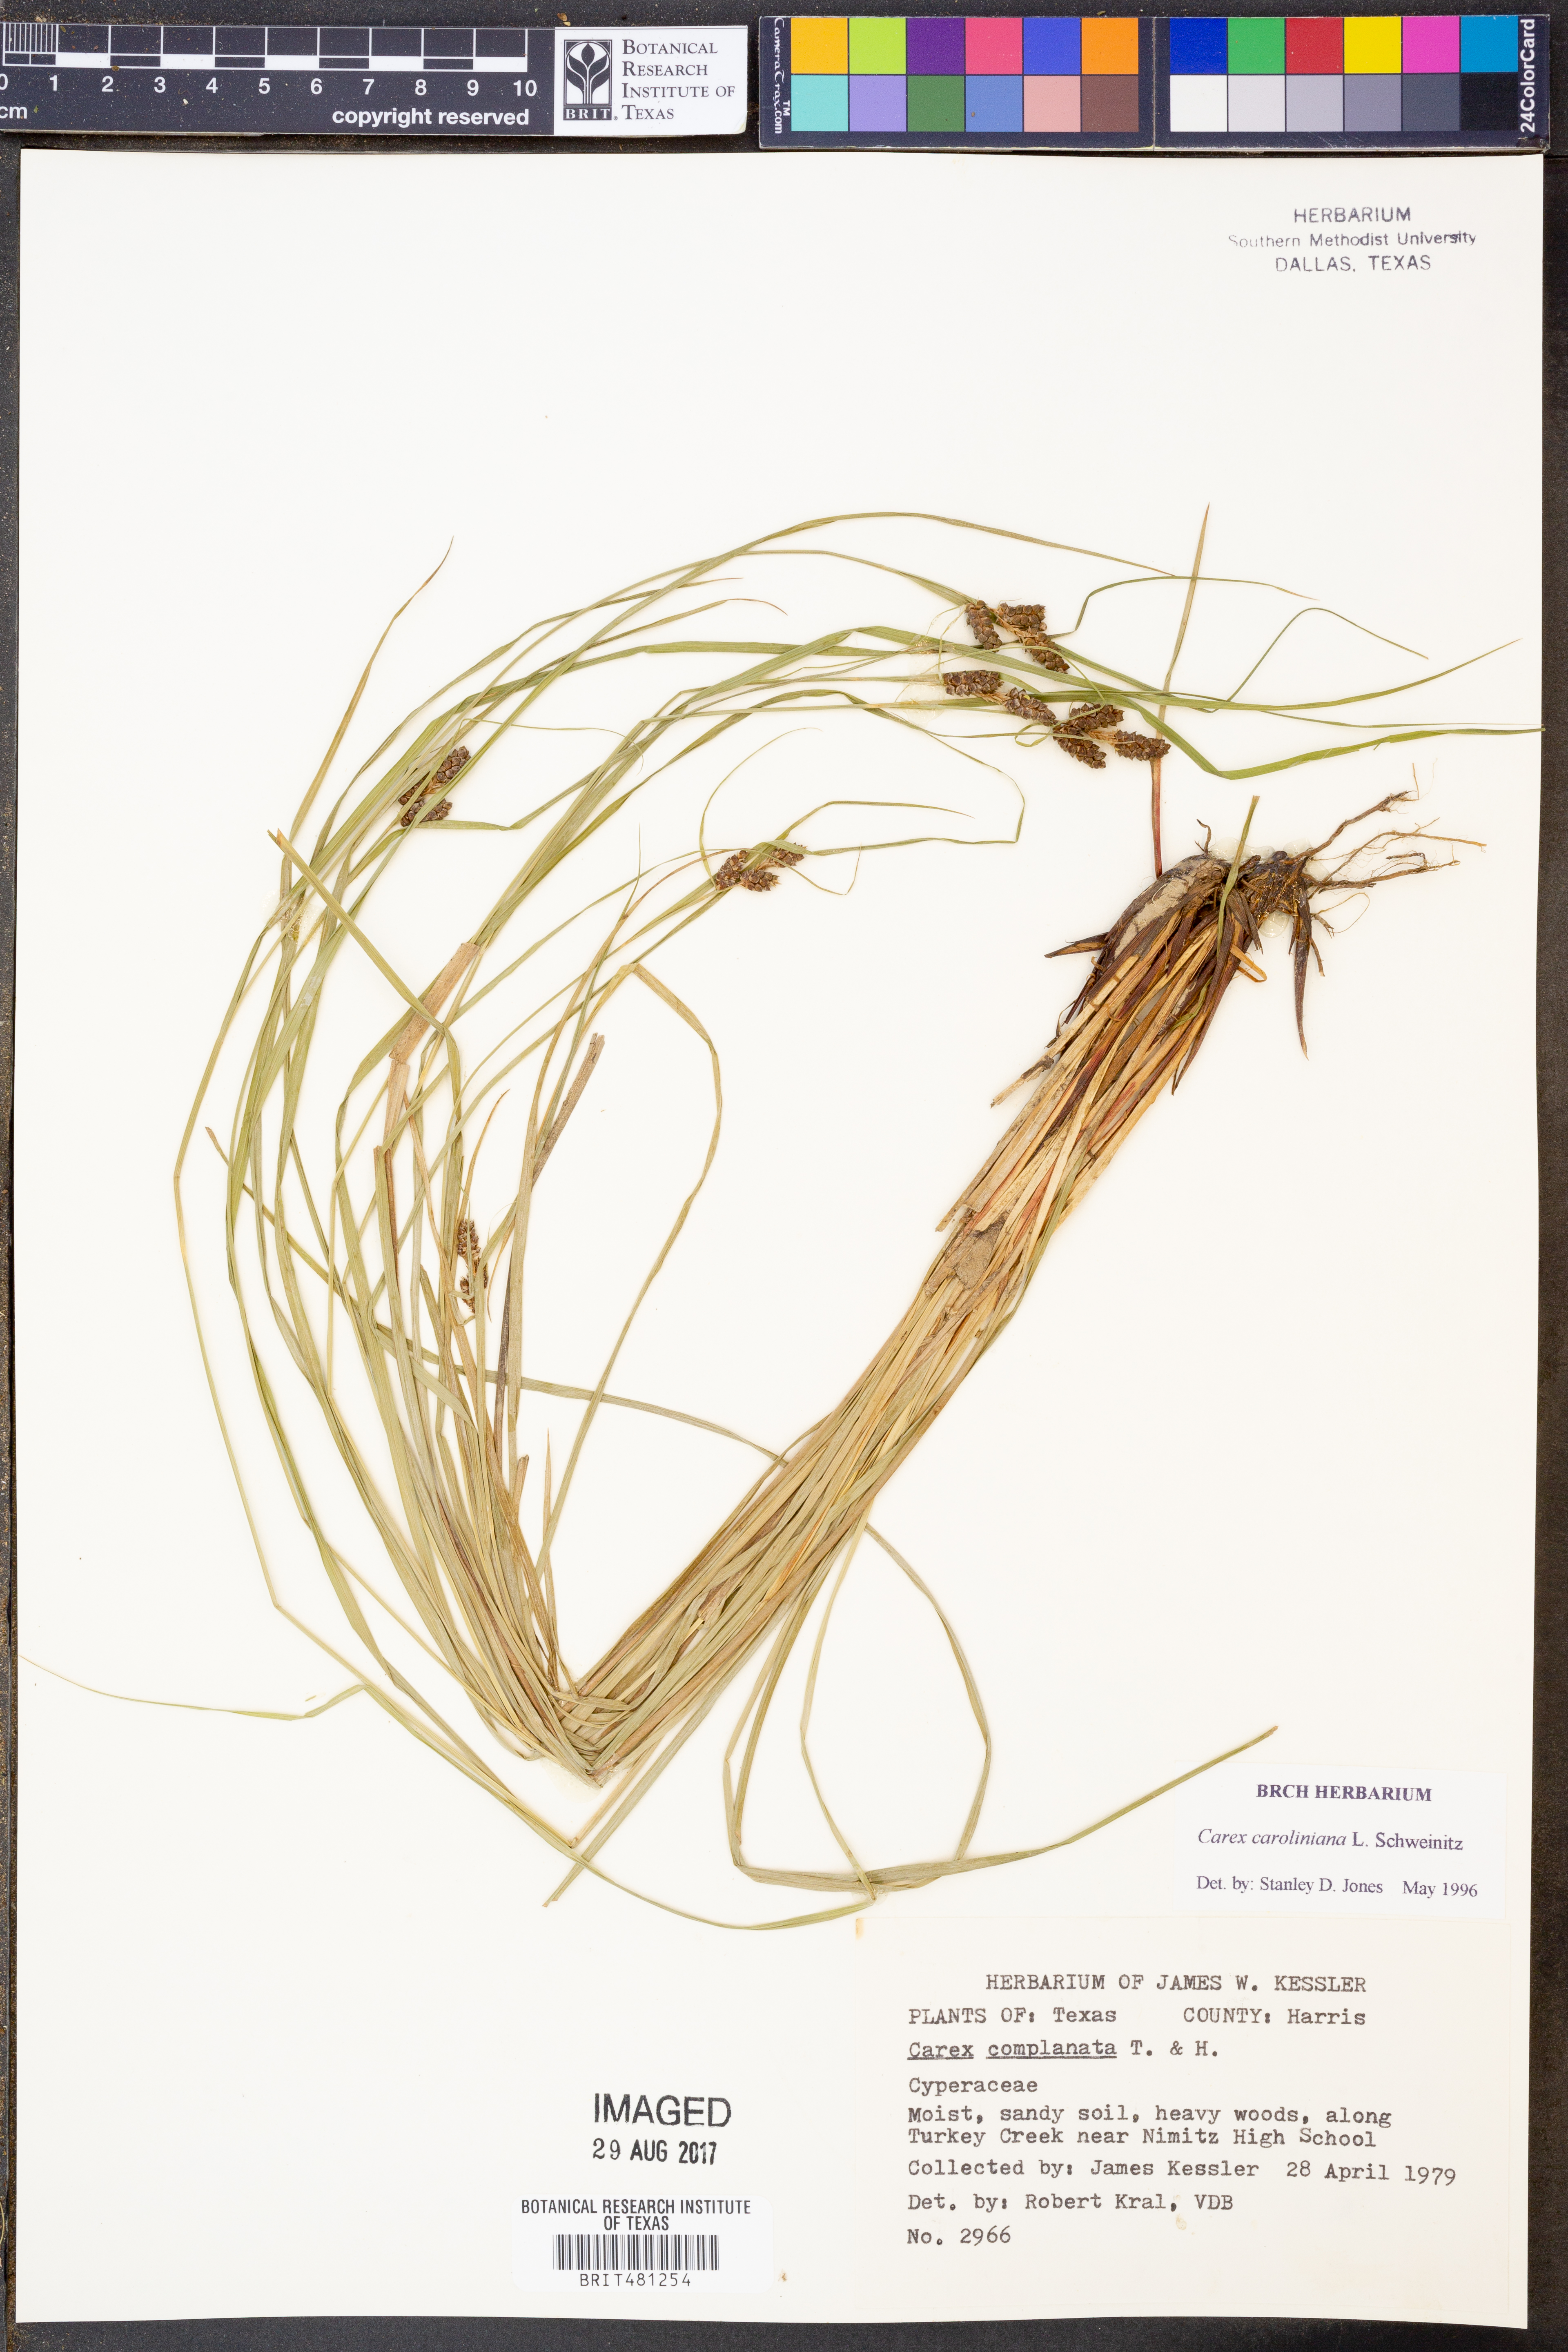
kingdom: Plantae
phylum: Tracheophyta
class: Liliopsida
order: Poales
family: Cyperaceae
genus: Carex
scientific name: Carex caroliniana
